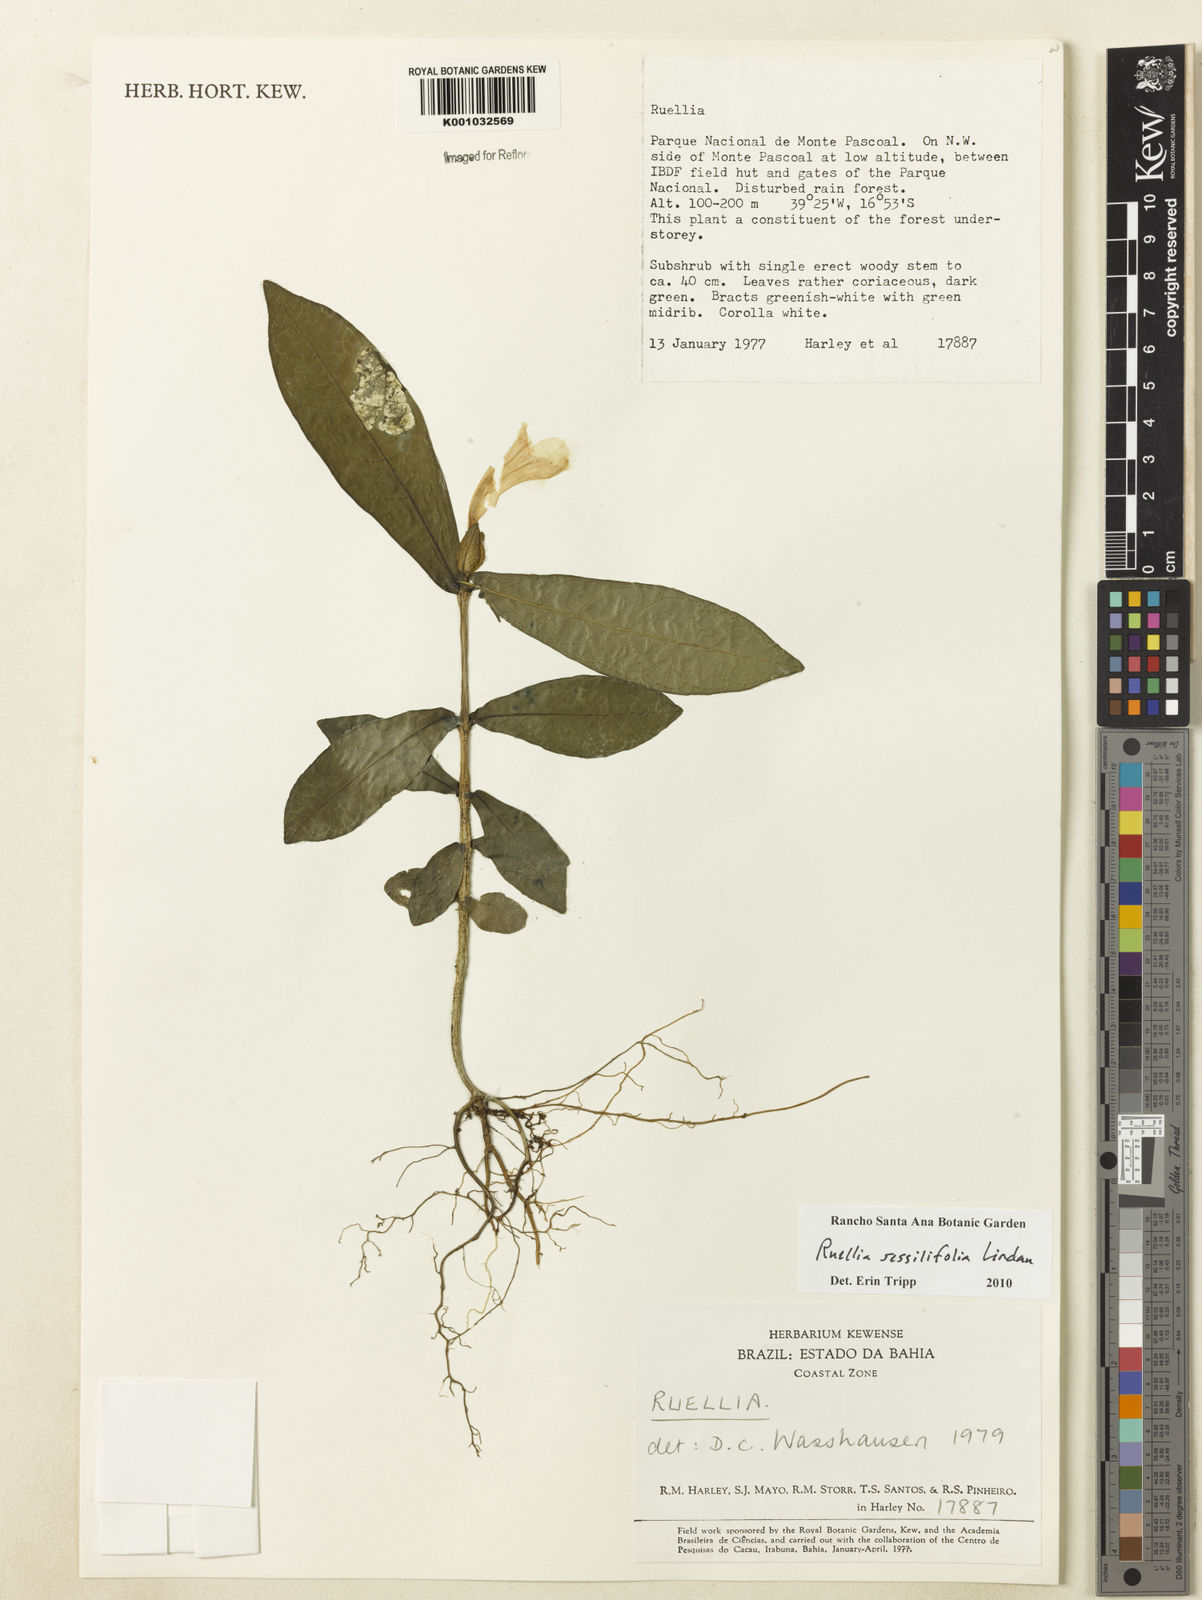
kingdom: Plantae
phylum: Tracheophyta
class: Magnoliopsida
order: Lamiales
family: Acanthaceae
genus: Ruellia
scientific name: Ruellia sessilifolia
